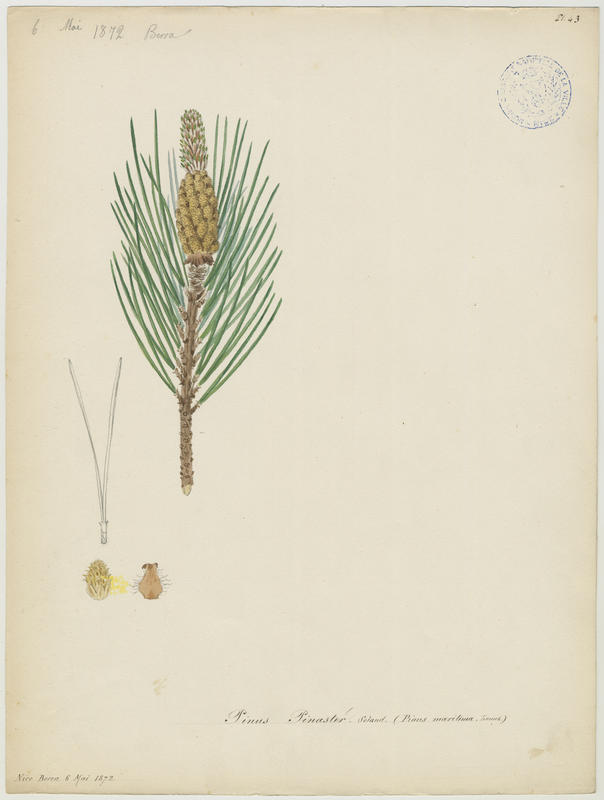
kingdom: Plantae
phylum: Tracheophyta
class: Pinopsida
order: Pinales
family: Pinaceae
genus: Pinus
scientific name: Pinus pinaster
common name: Maritime pine
